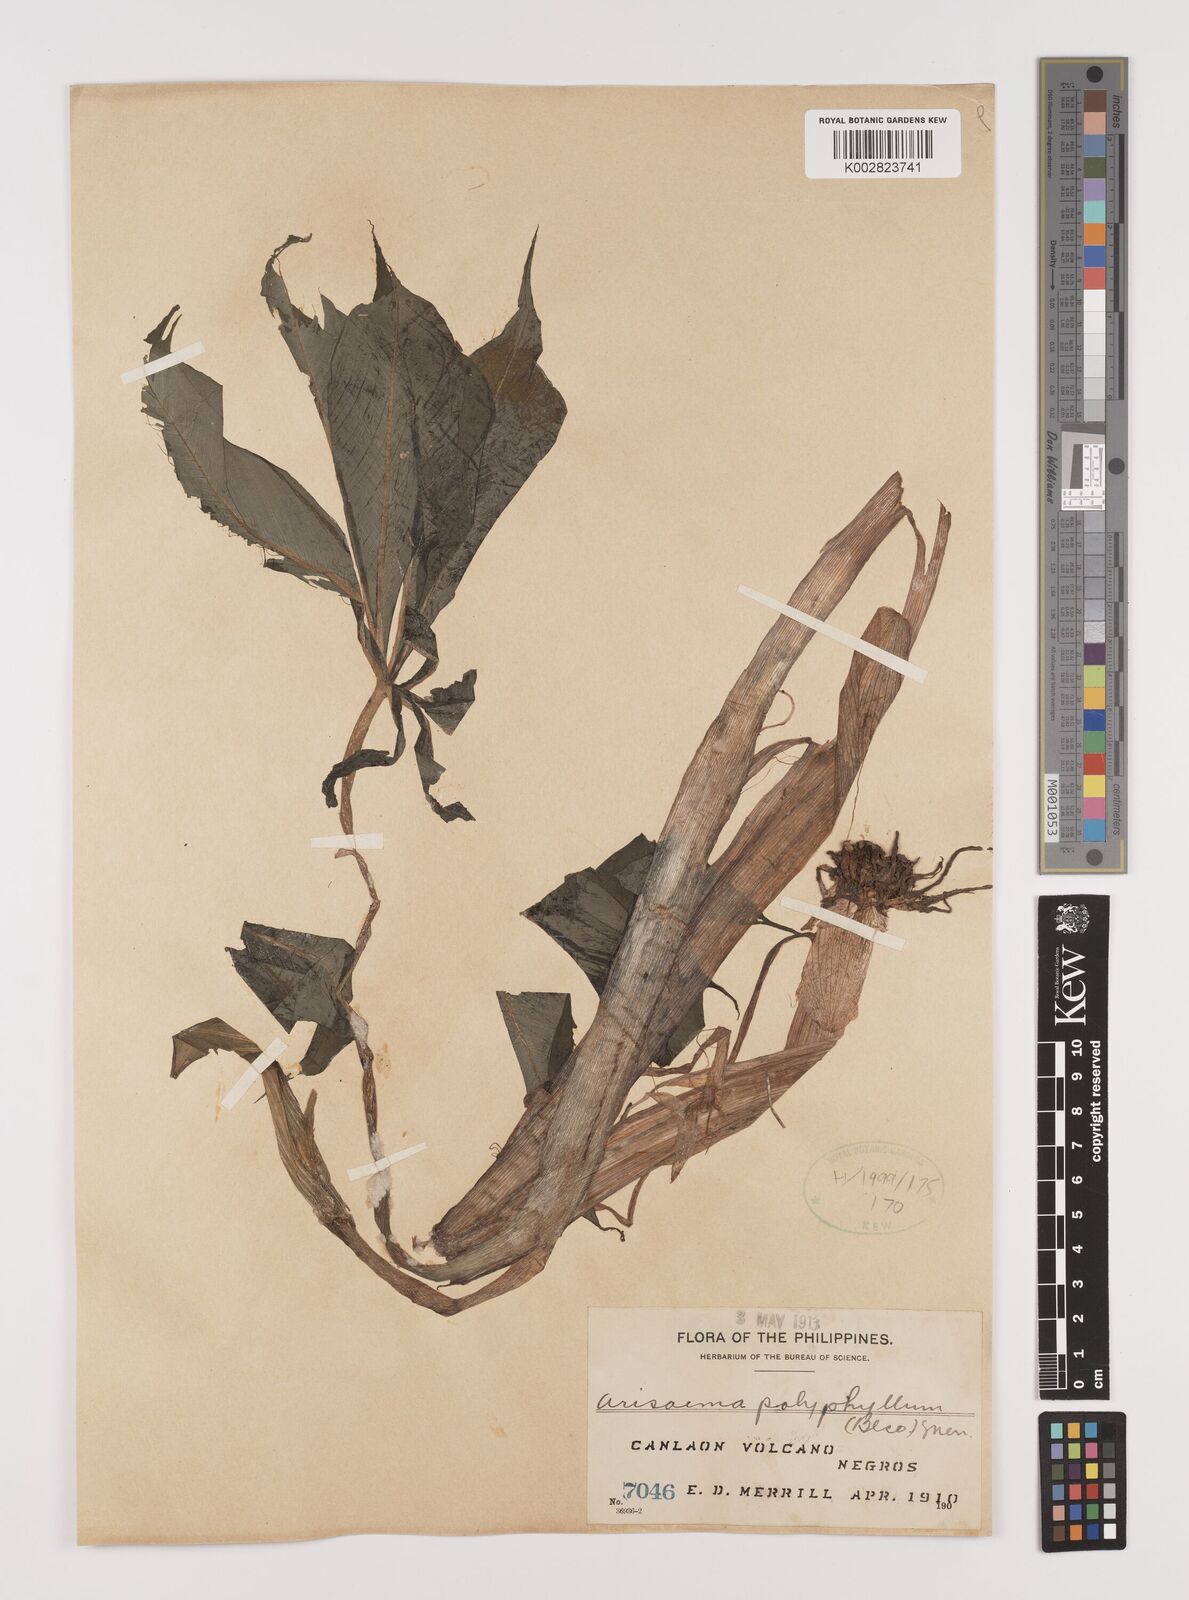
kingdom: Plantae
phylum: Tracheophyta
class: Liliopsida
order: Alismatales
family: Araceae
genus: Arisaema
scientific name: Arisaema polyphyllum
